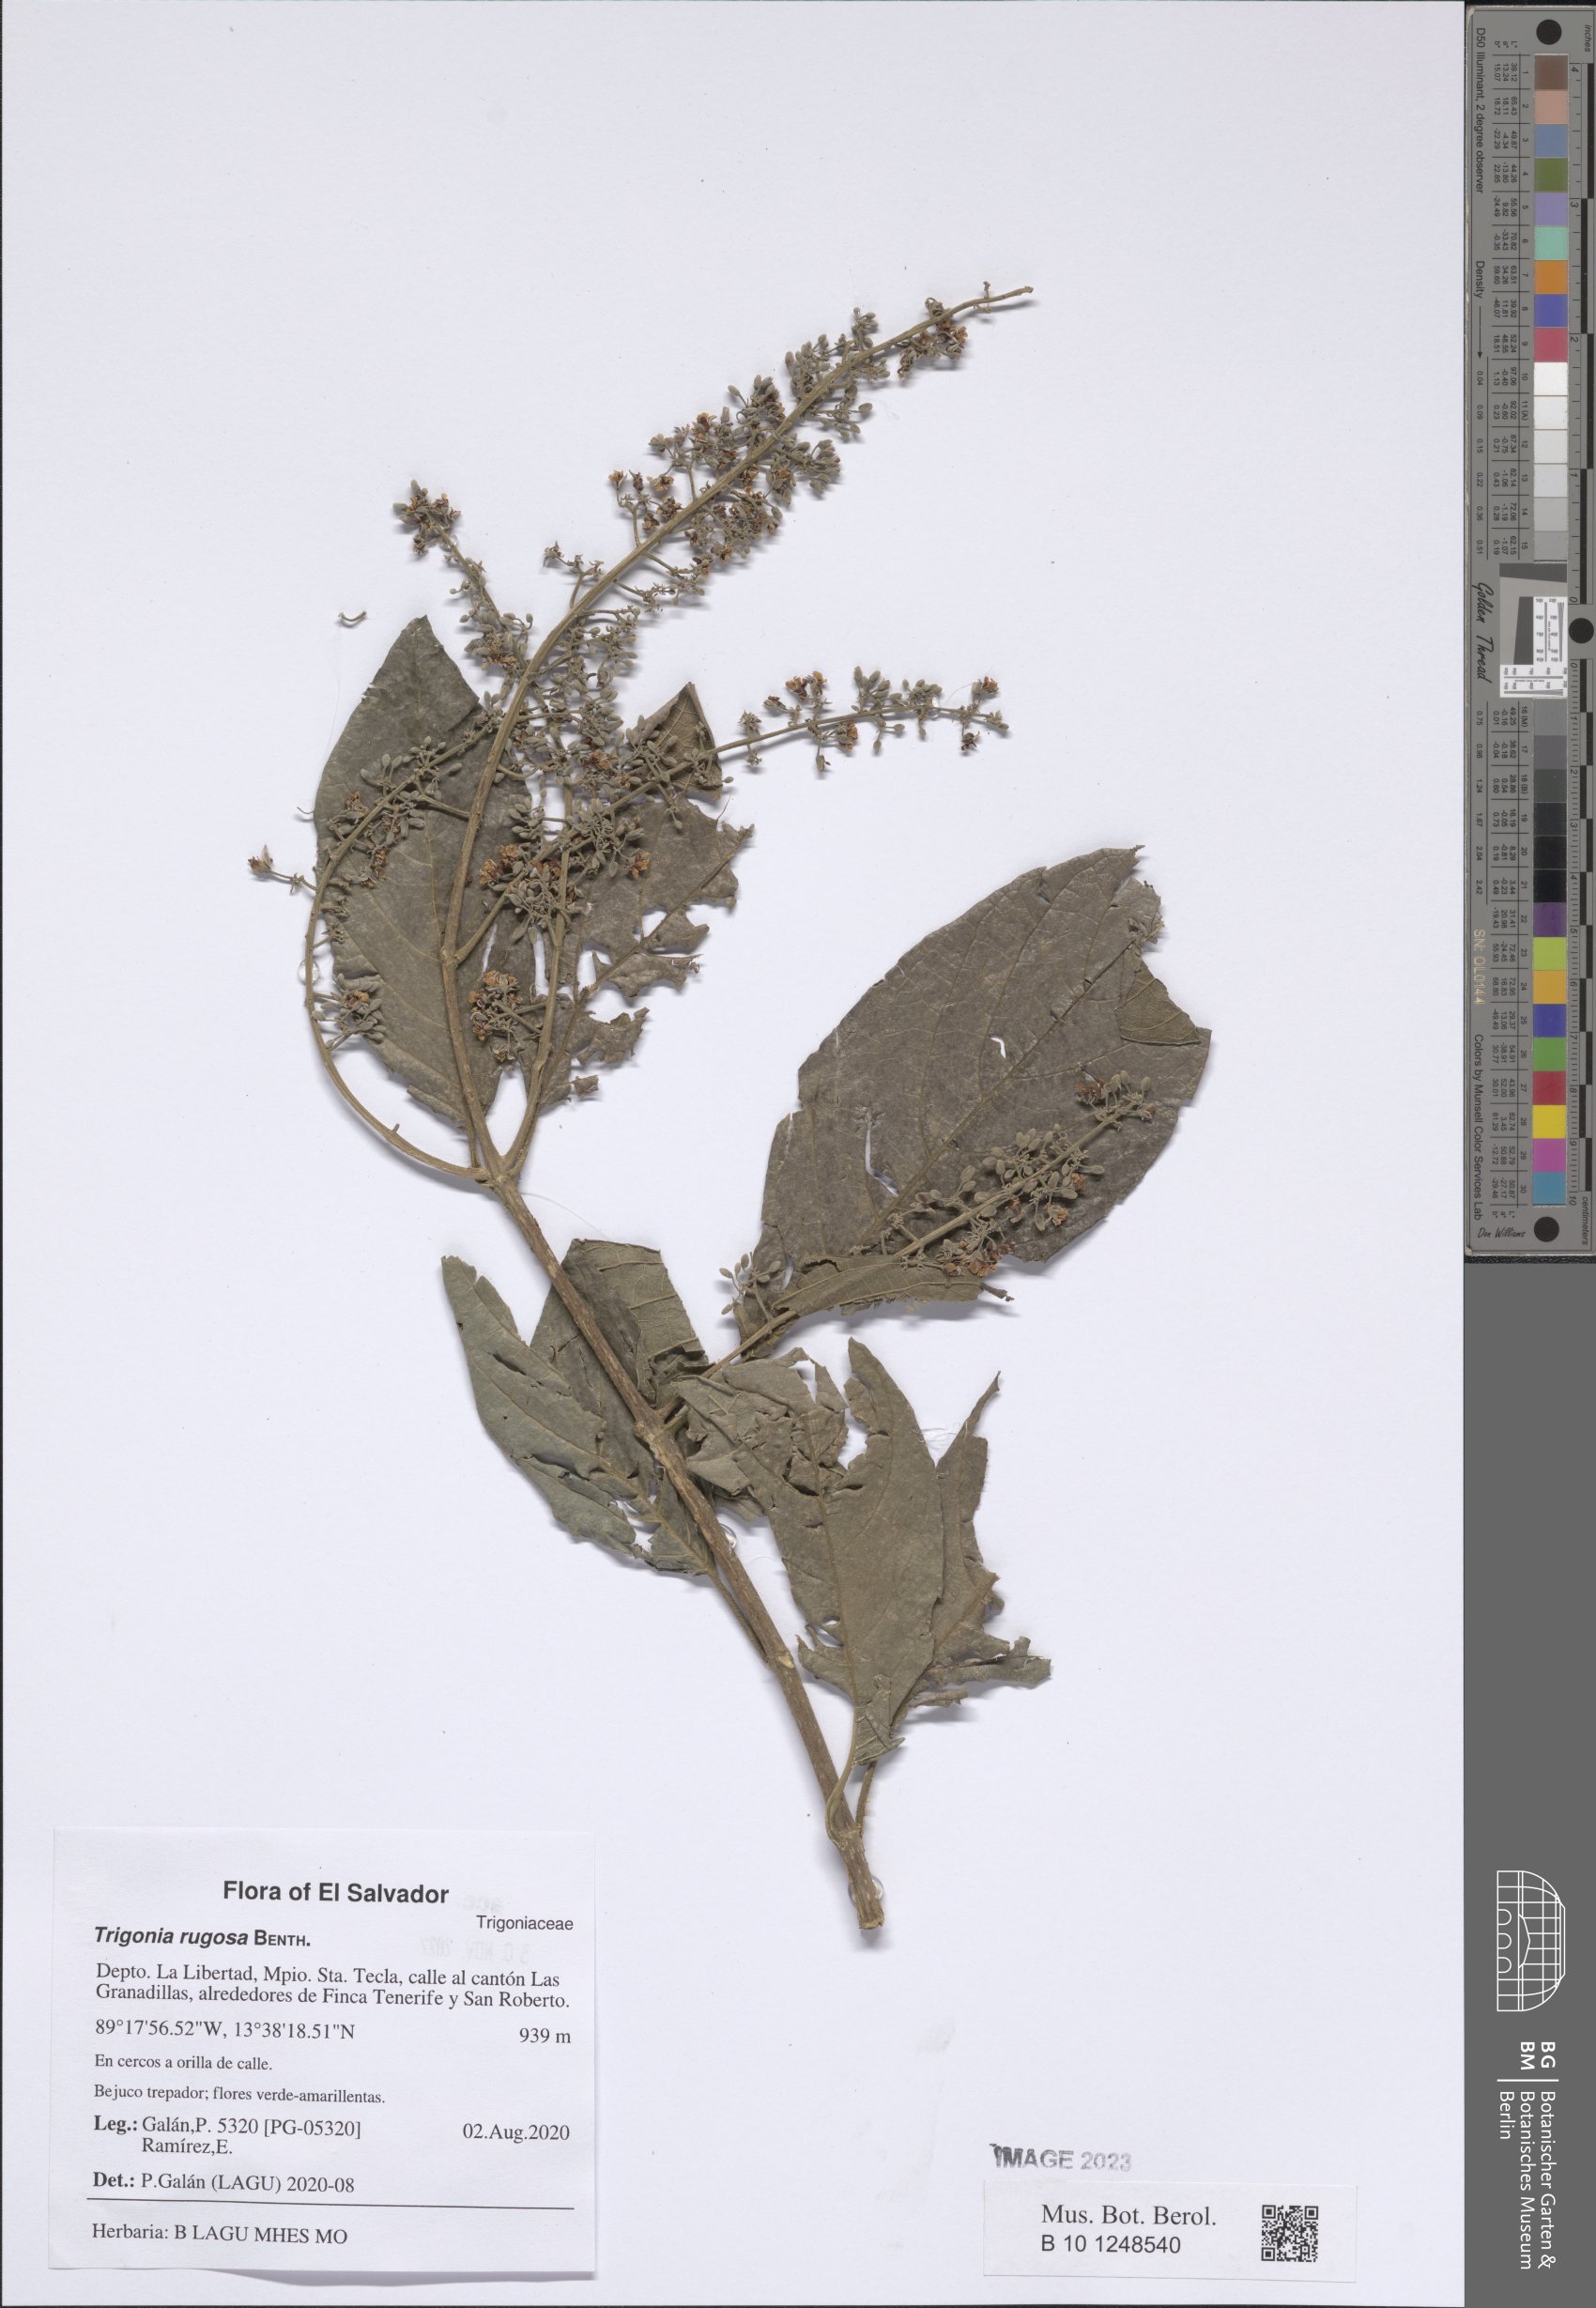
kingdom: Plantae
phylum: Tracheophyta
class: Magnoliopsida
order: Malpighiales
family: Trigoniaceae
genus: Trigonia
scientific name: Trigonia rugosa
